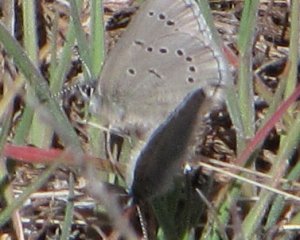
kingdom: Animalia
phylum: Arthropoda
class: Insecta
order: Lepidoptera
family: Lycaenidae
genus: Glaucopsyche
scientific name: Glaucopsyche lygdamus
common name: Silvery Blue
